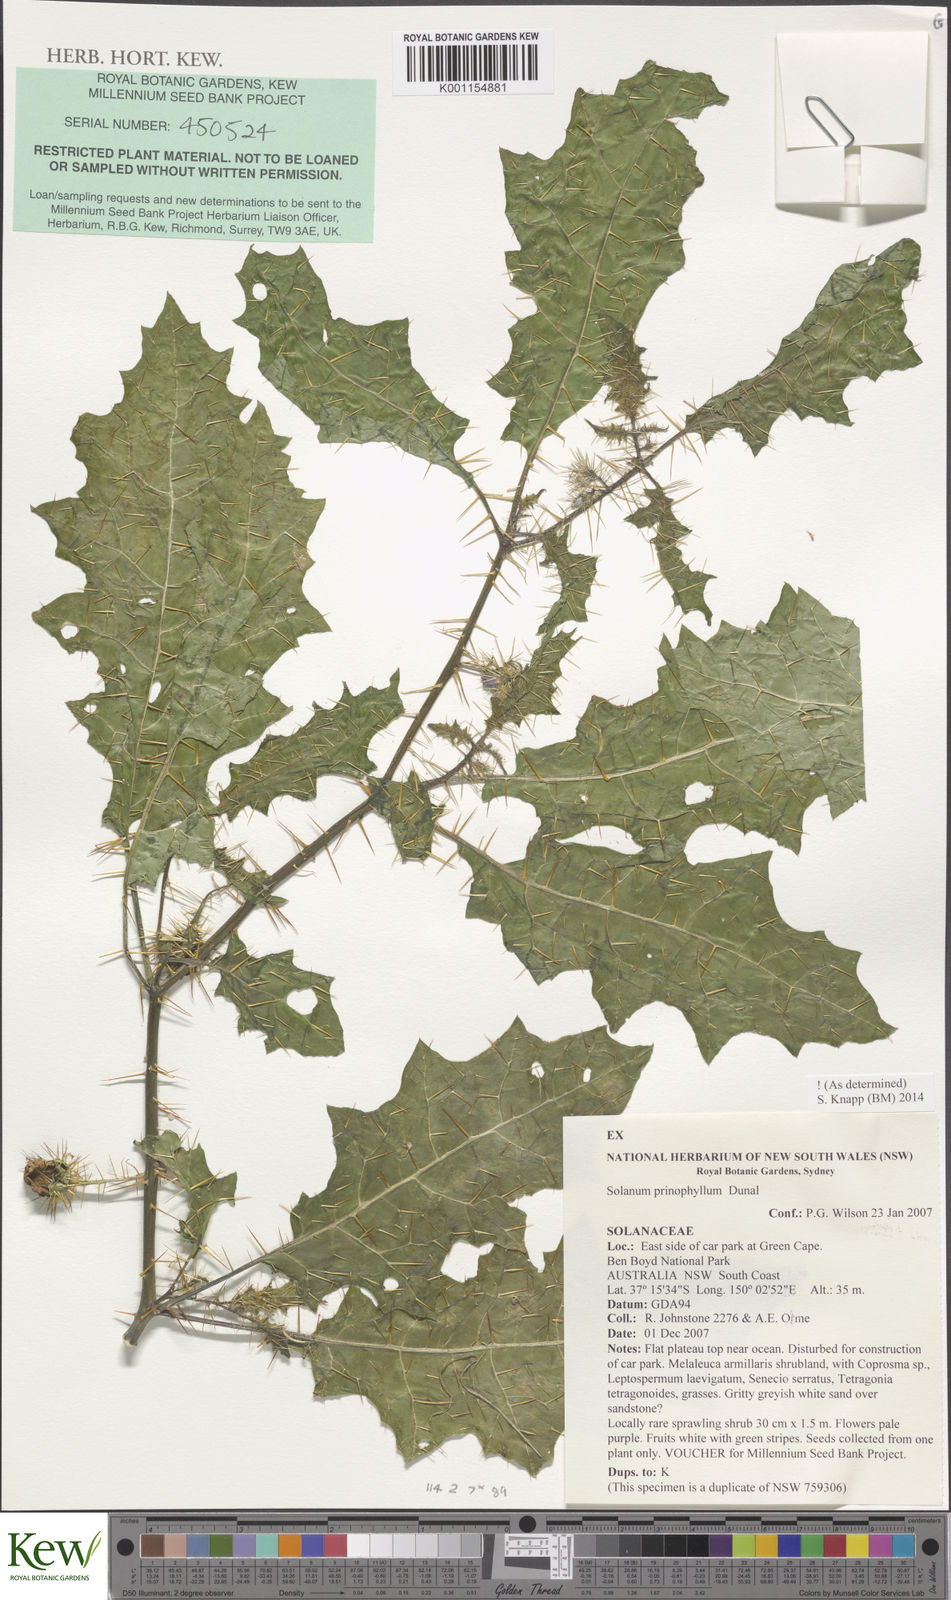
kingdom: Plantae
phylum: Tracheophyta
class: Magnoliopsida
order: Solanales
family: Solanaceae
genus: Solanum
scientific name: Solanum prinophyllum
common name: Forest nightshade
